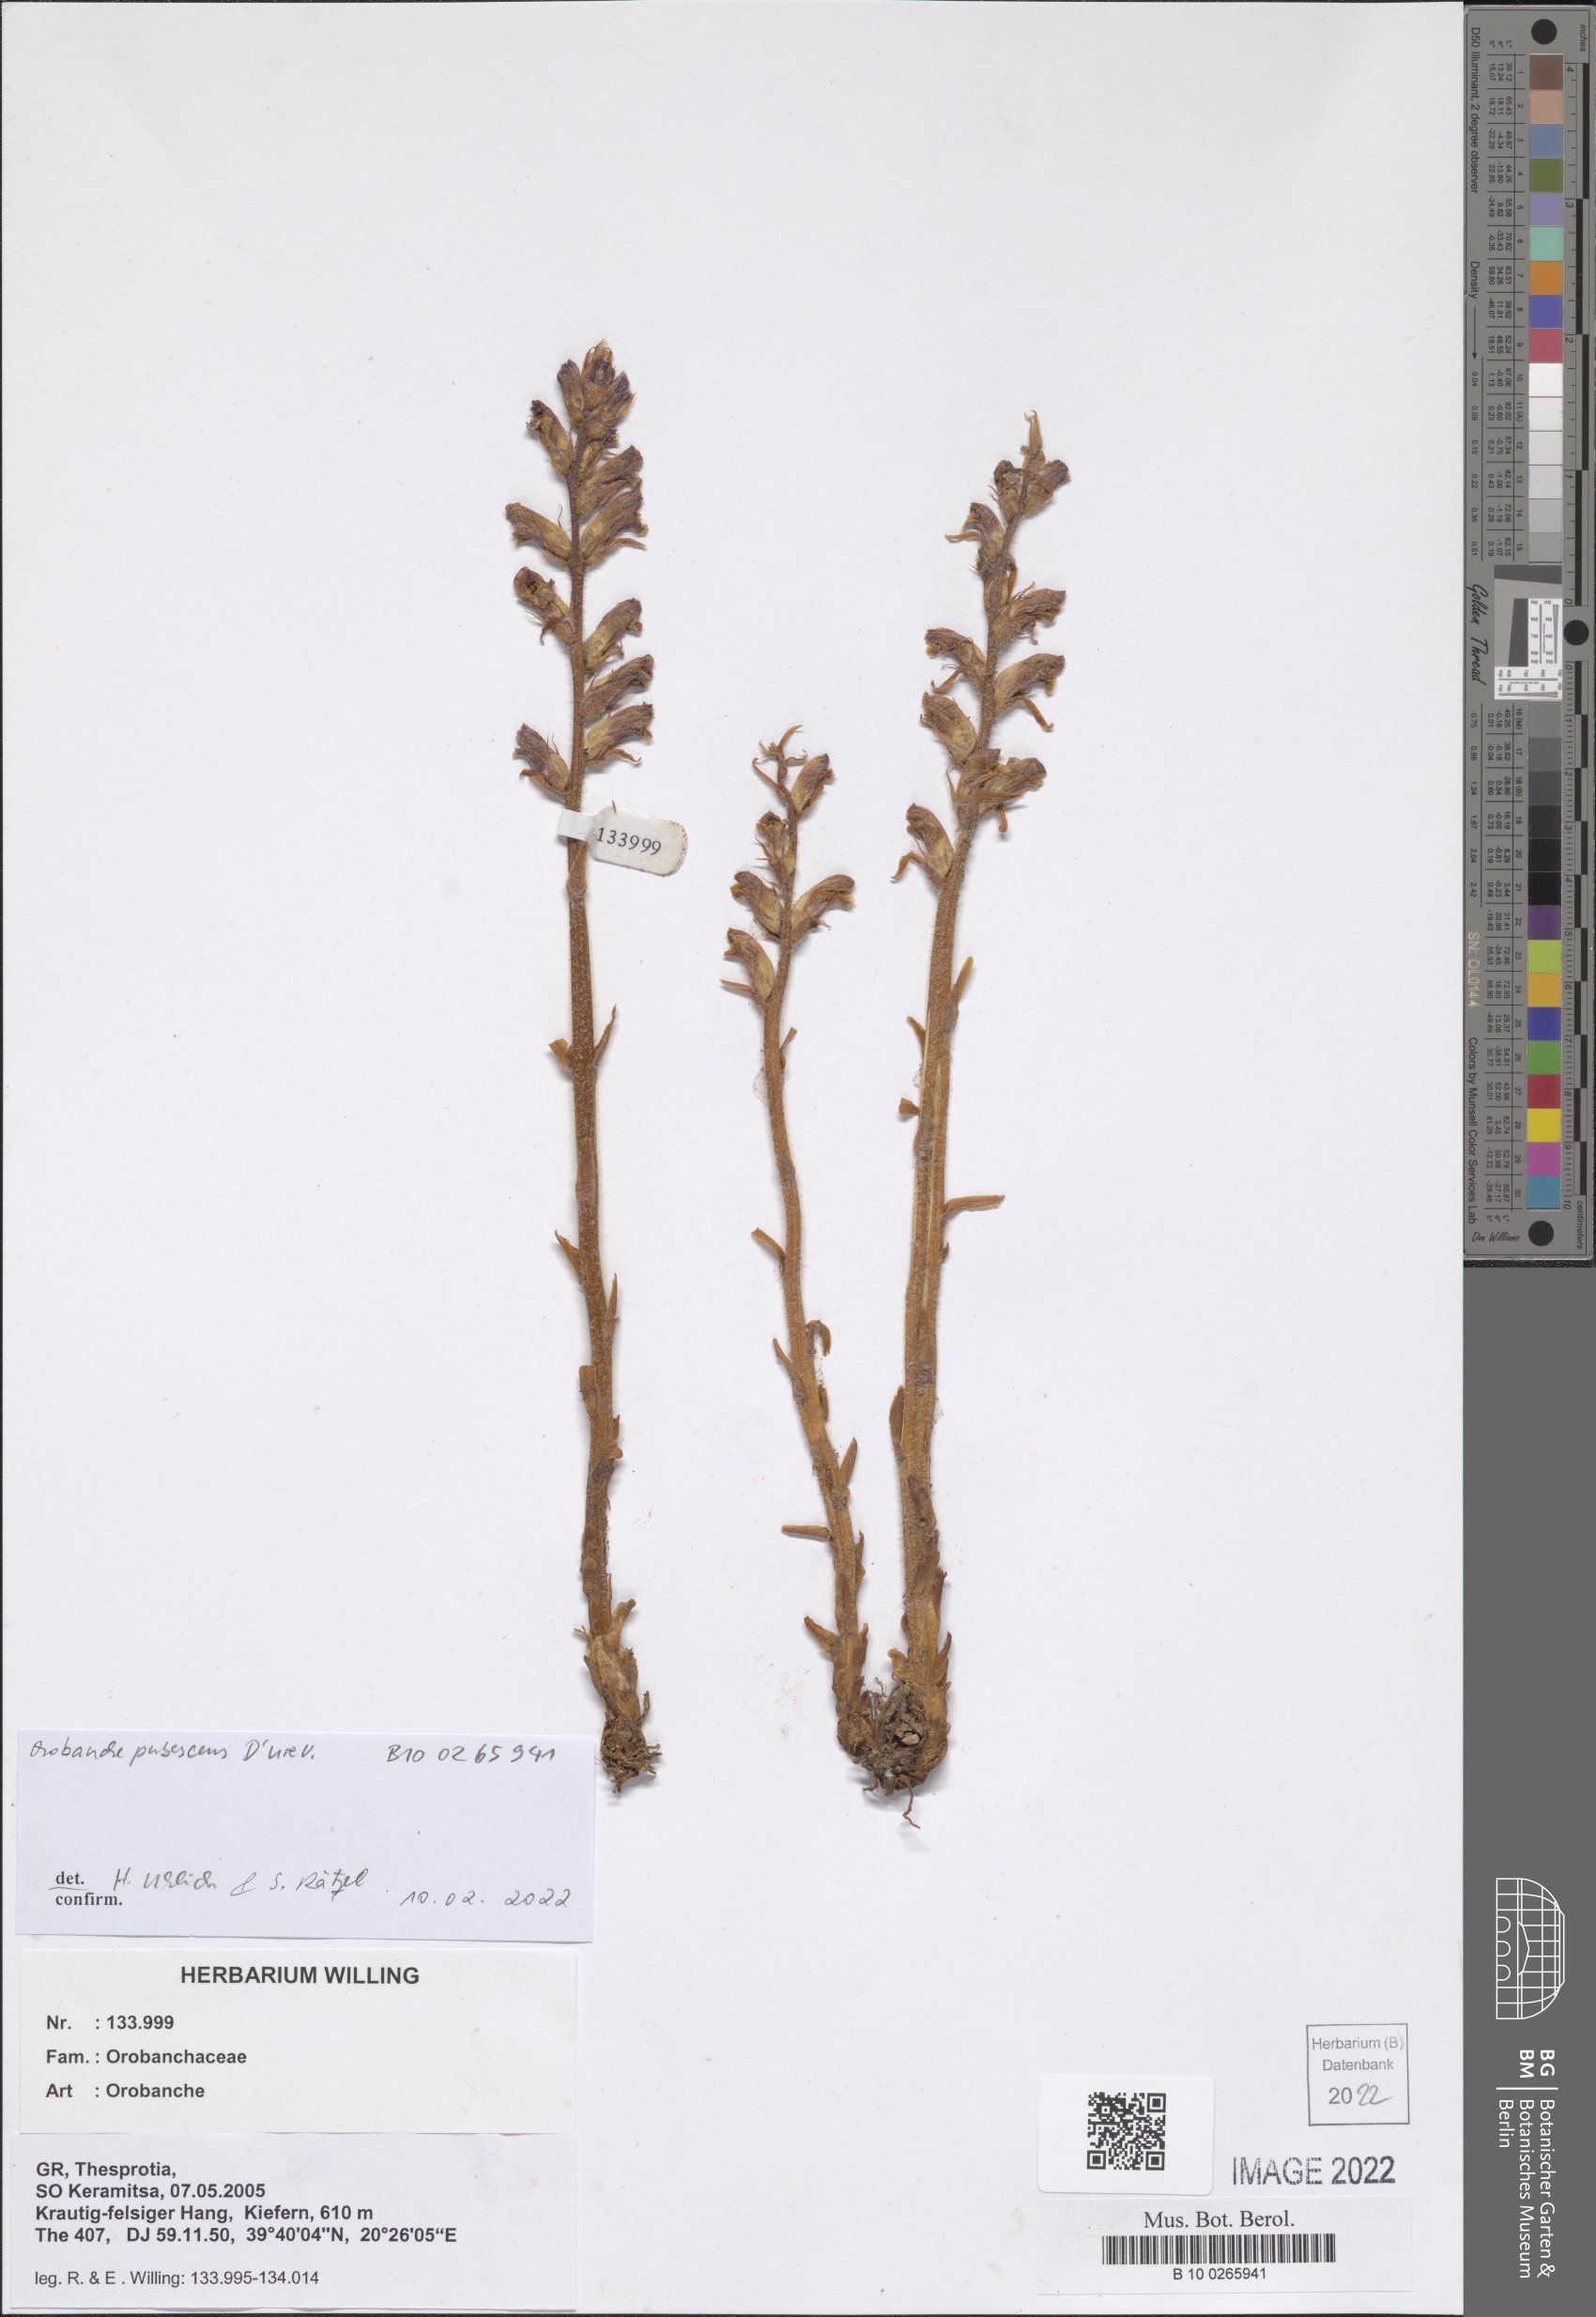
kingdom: Plantae
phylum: Tracheophyta
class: Magnoliopsida
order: Lamiales
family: Orobanchaceae
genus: Orobanche
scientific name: Orobanche pubescens
